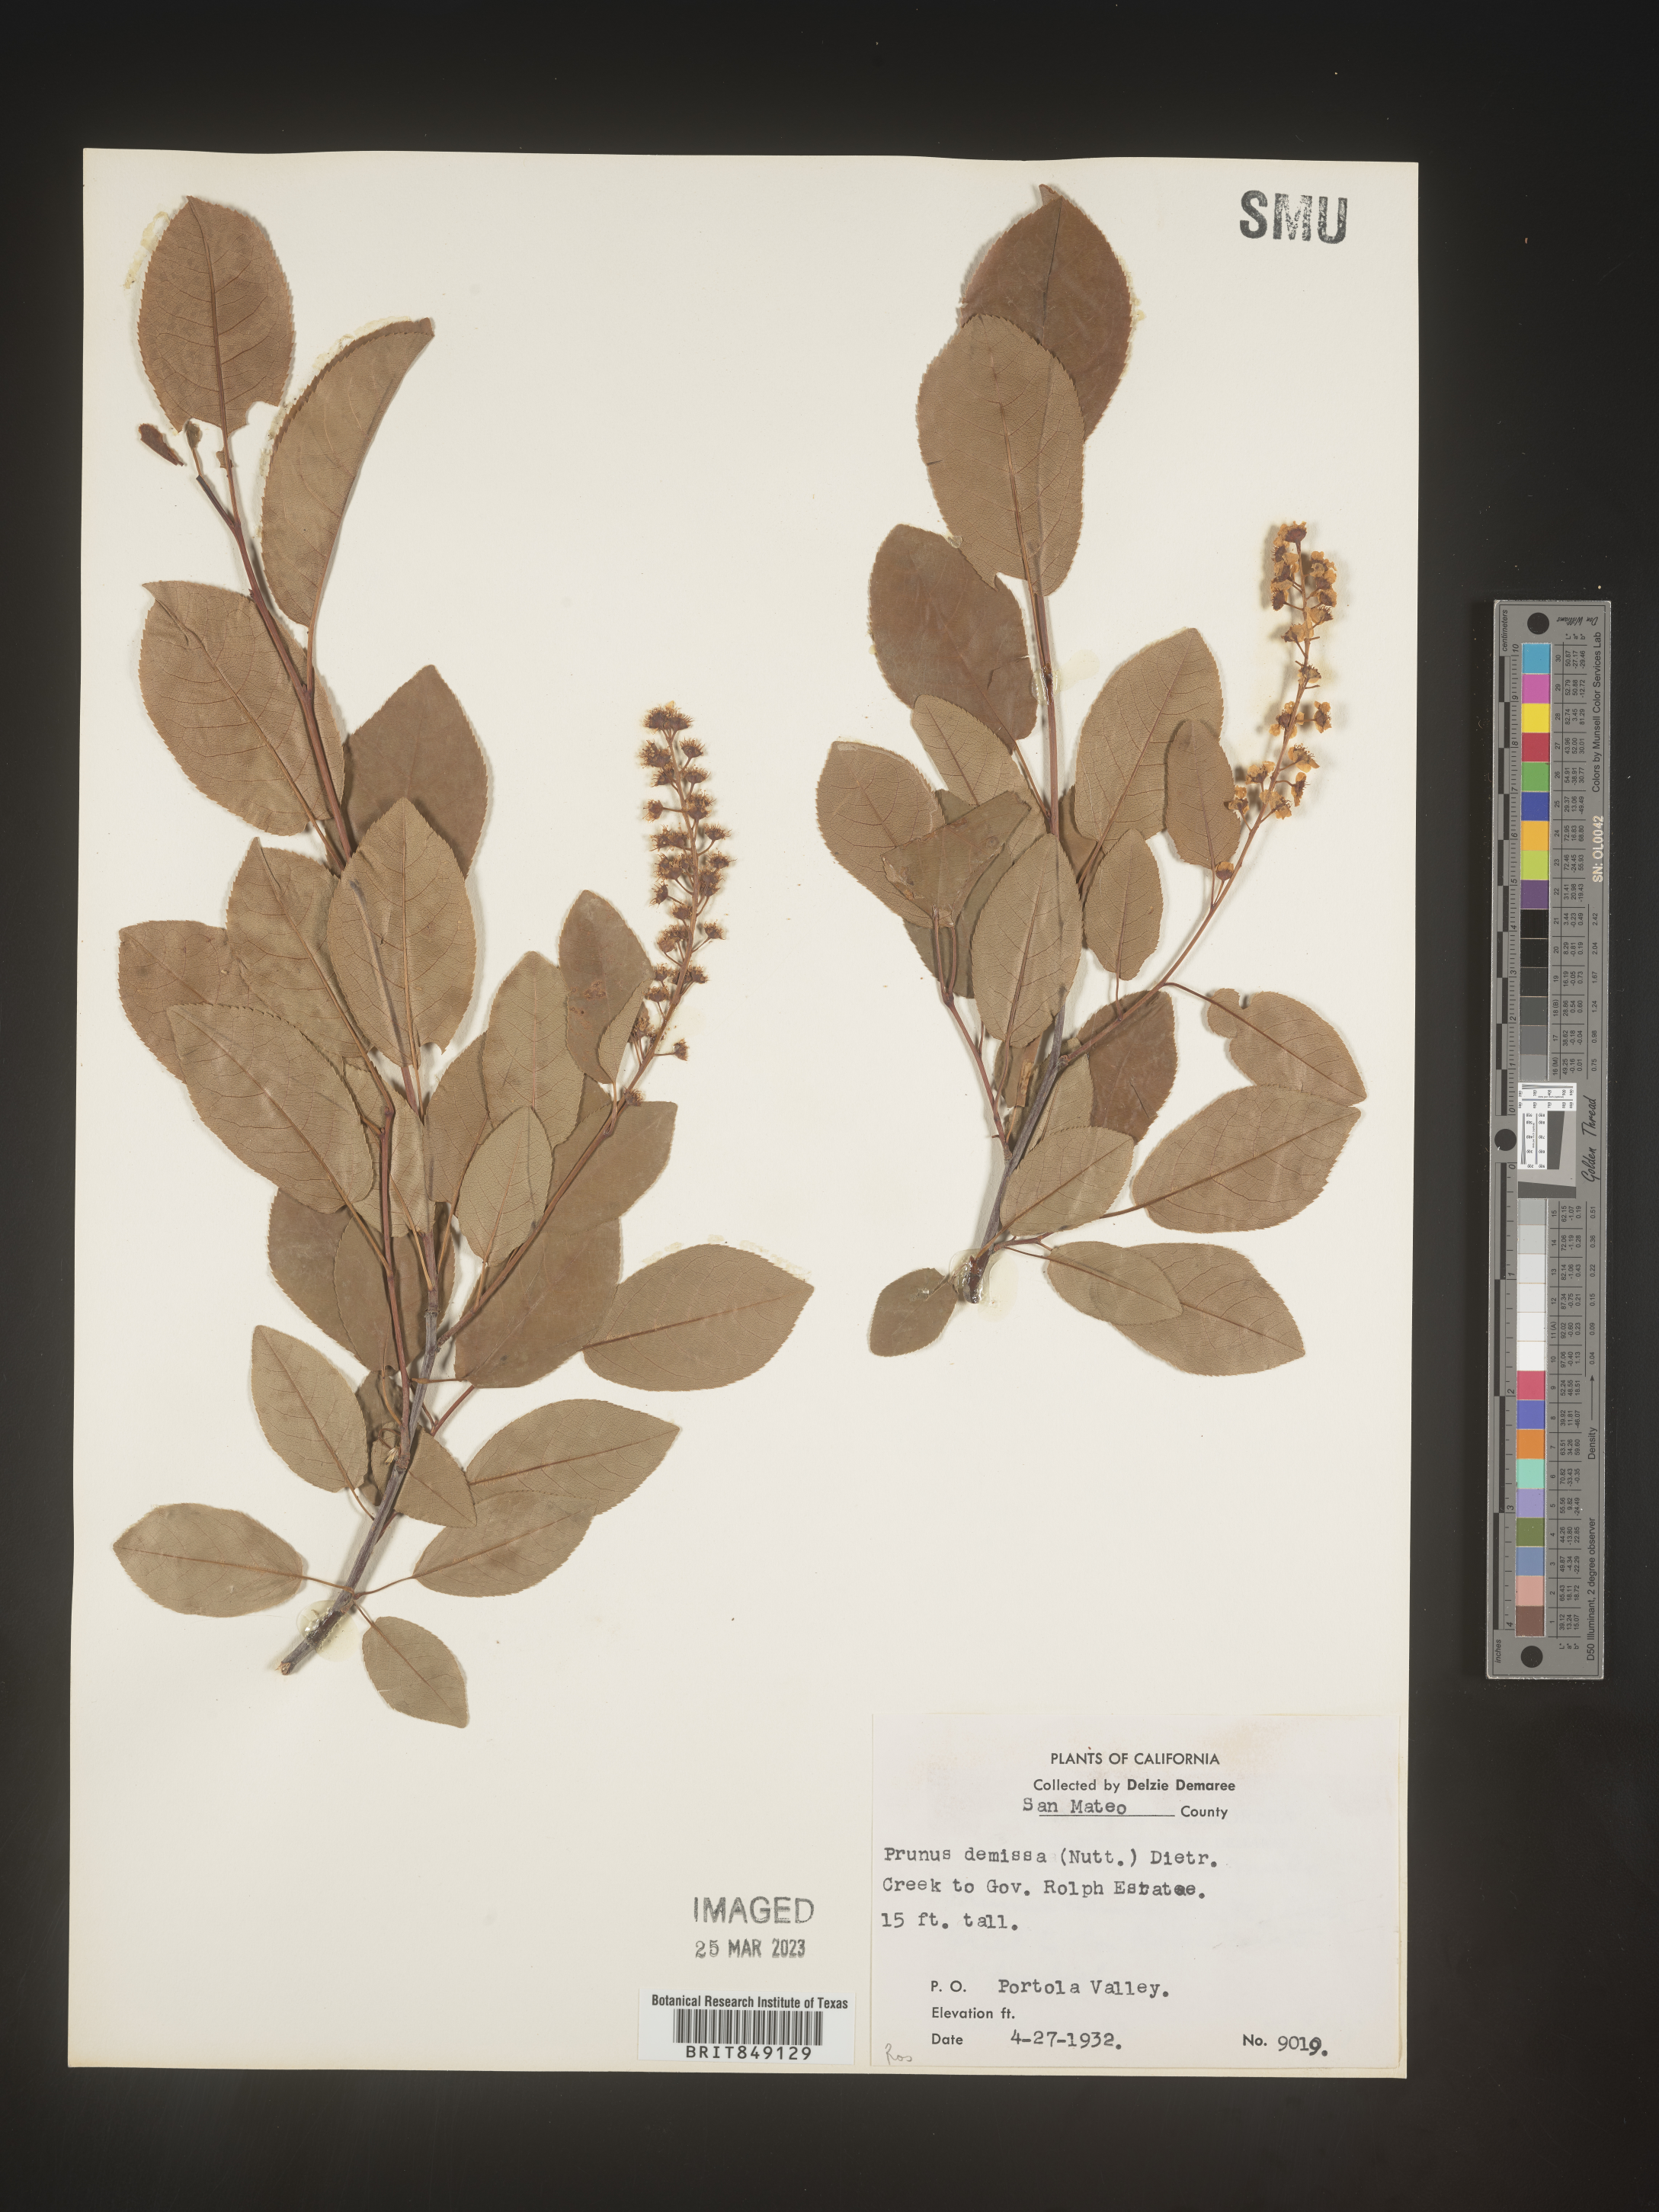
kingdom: Plantae
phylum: Tracheophyta
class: Magnoliopsida
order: Rosales
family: Rosaceae
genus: Prunus
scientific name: Prunus
